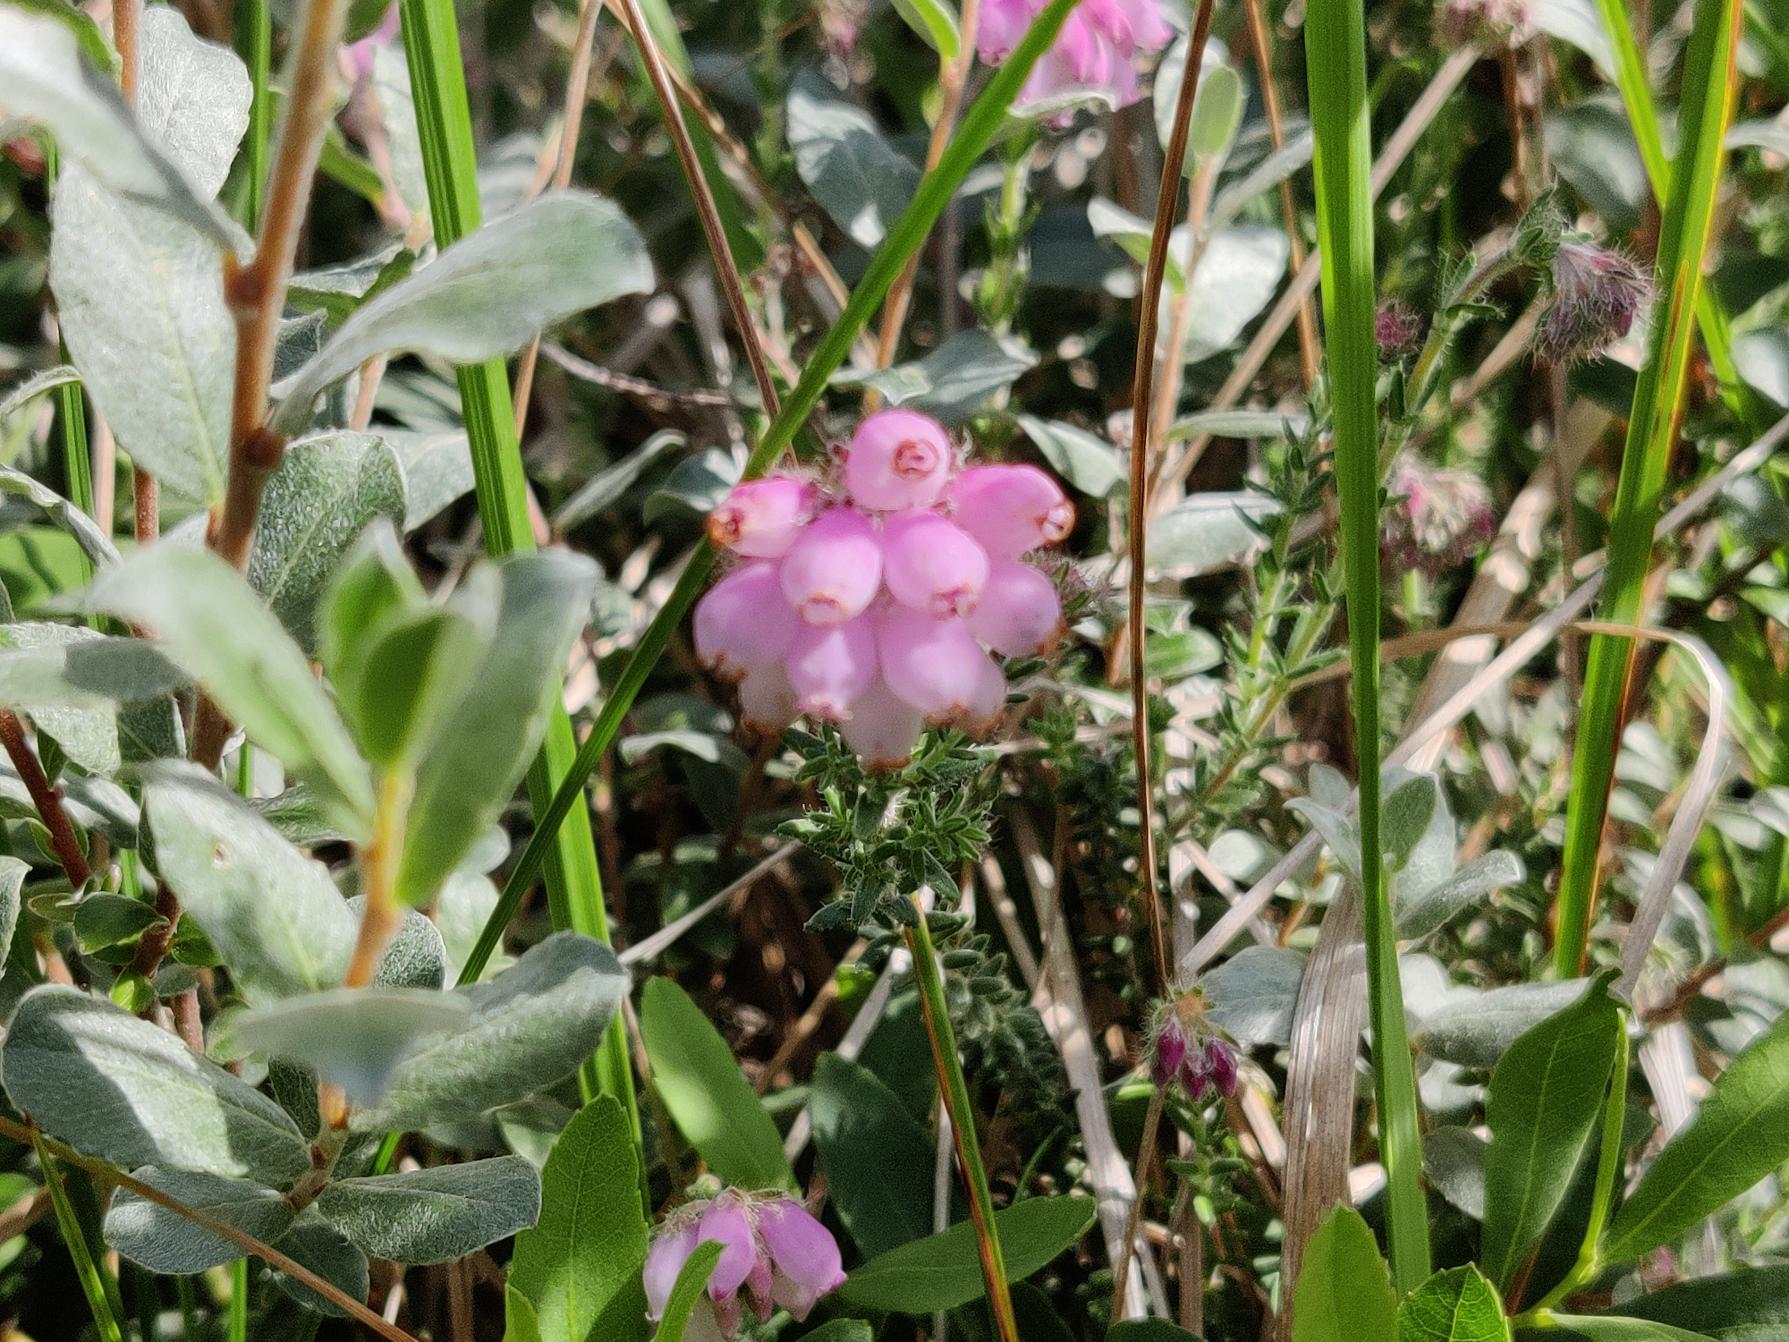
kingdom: Plantae
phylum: Tracheophyta
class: Magnoliopsida
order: Ericales
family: Ericaceae
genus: Erica
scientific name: Erica tetralix
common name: Klokkelyng
